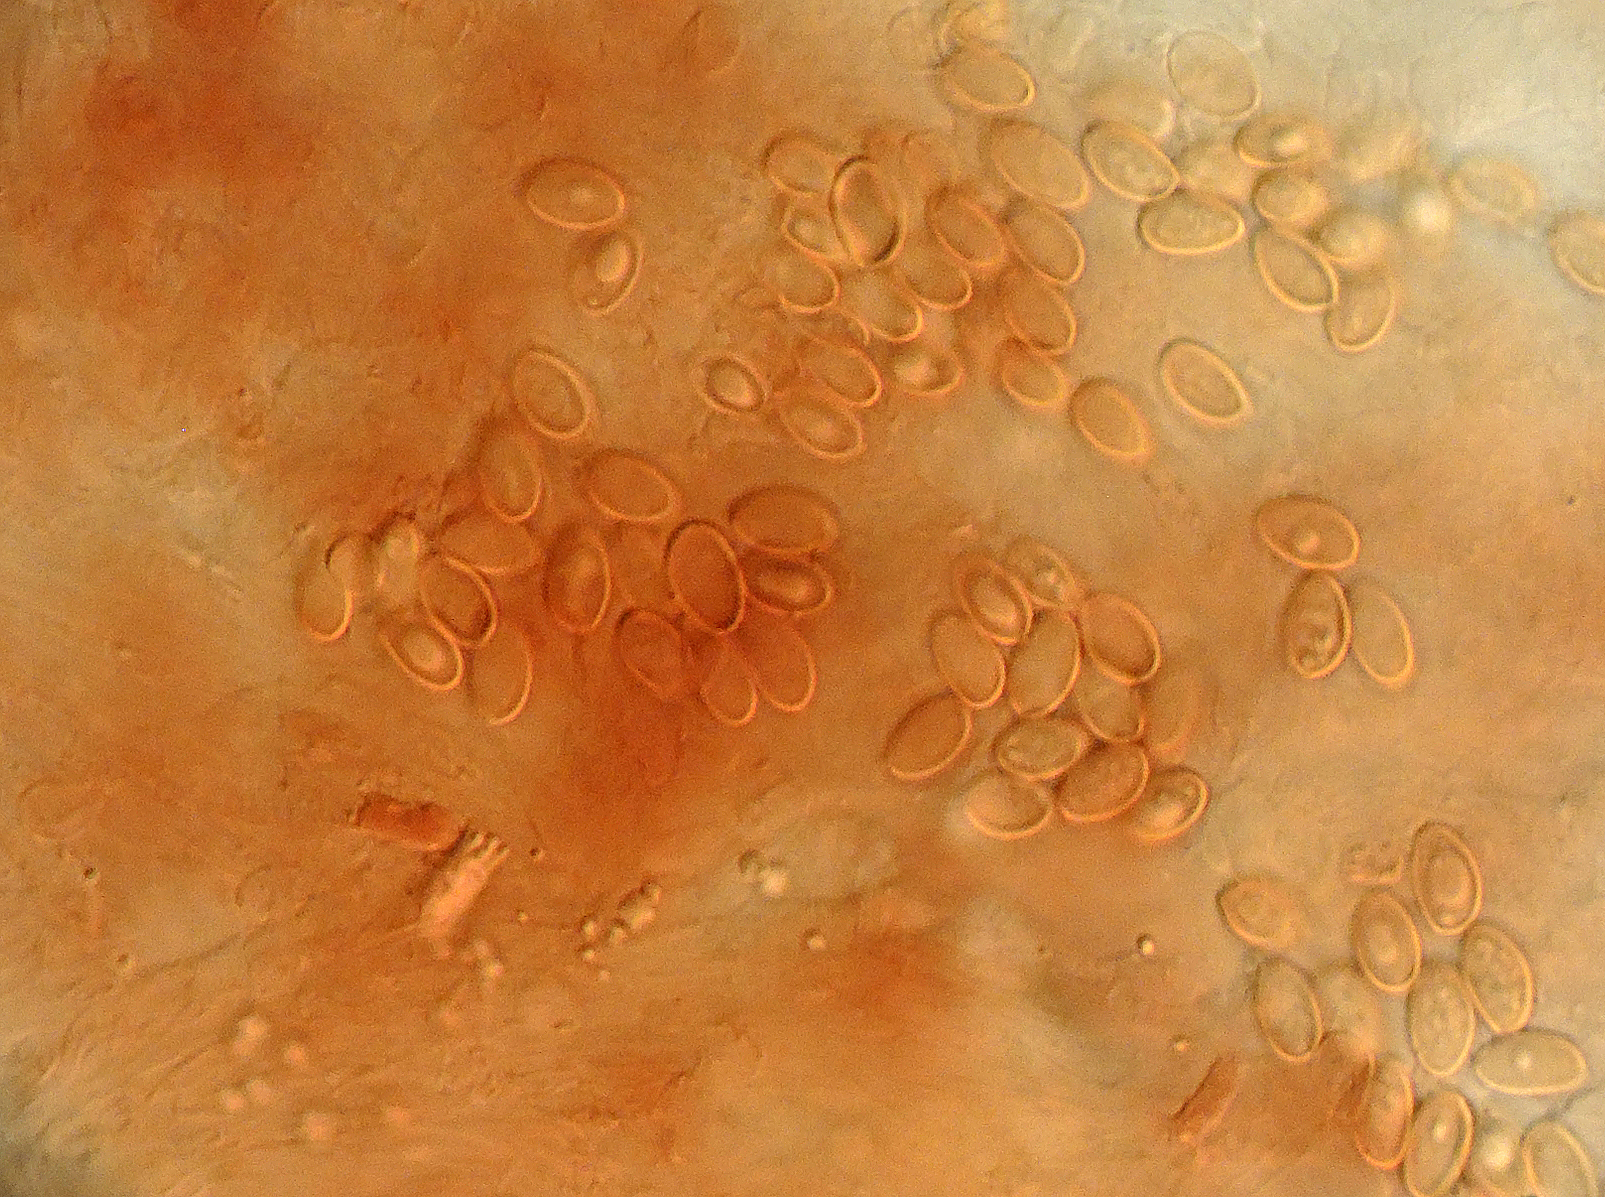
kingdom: Fungi
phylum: Basidiomycota
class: Agaricomycetes
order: Agaricales
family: Tubariaceae
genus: Tubaria
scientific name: Tubaria
